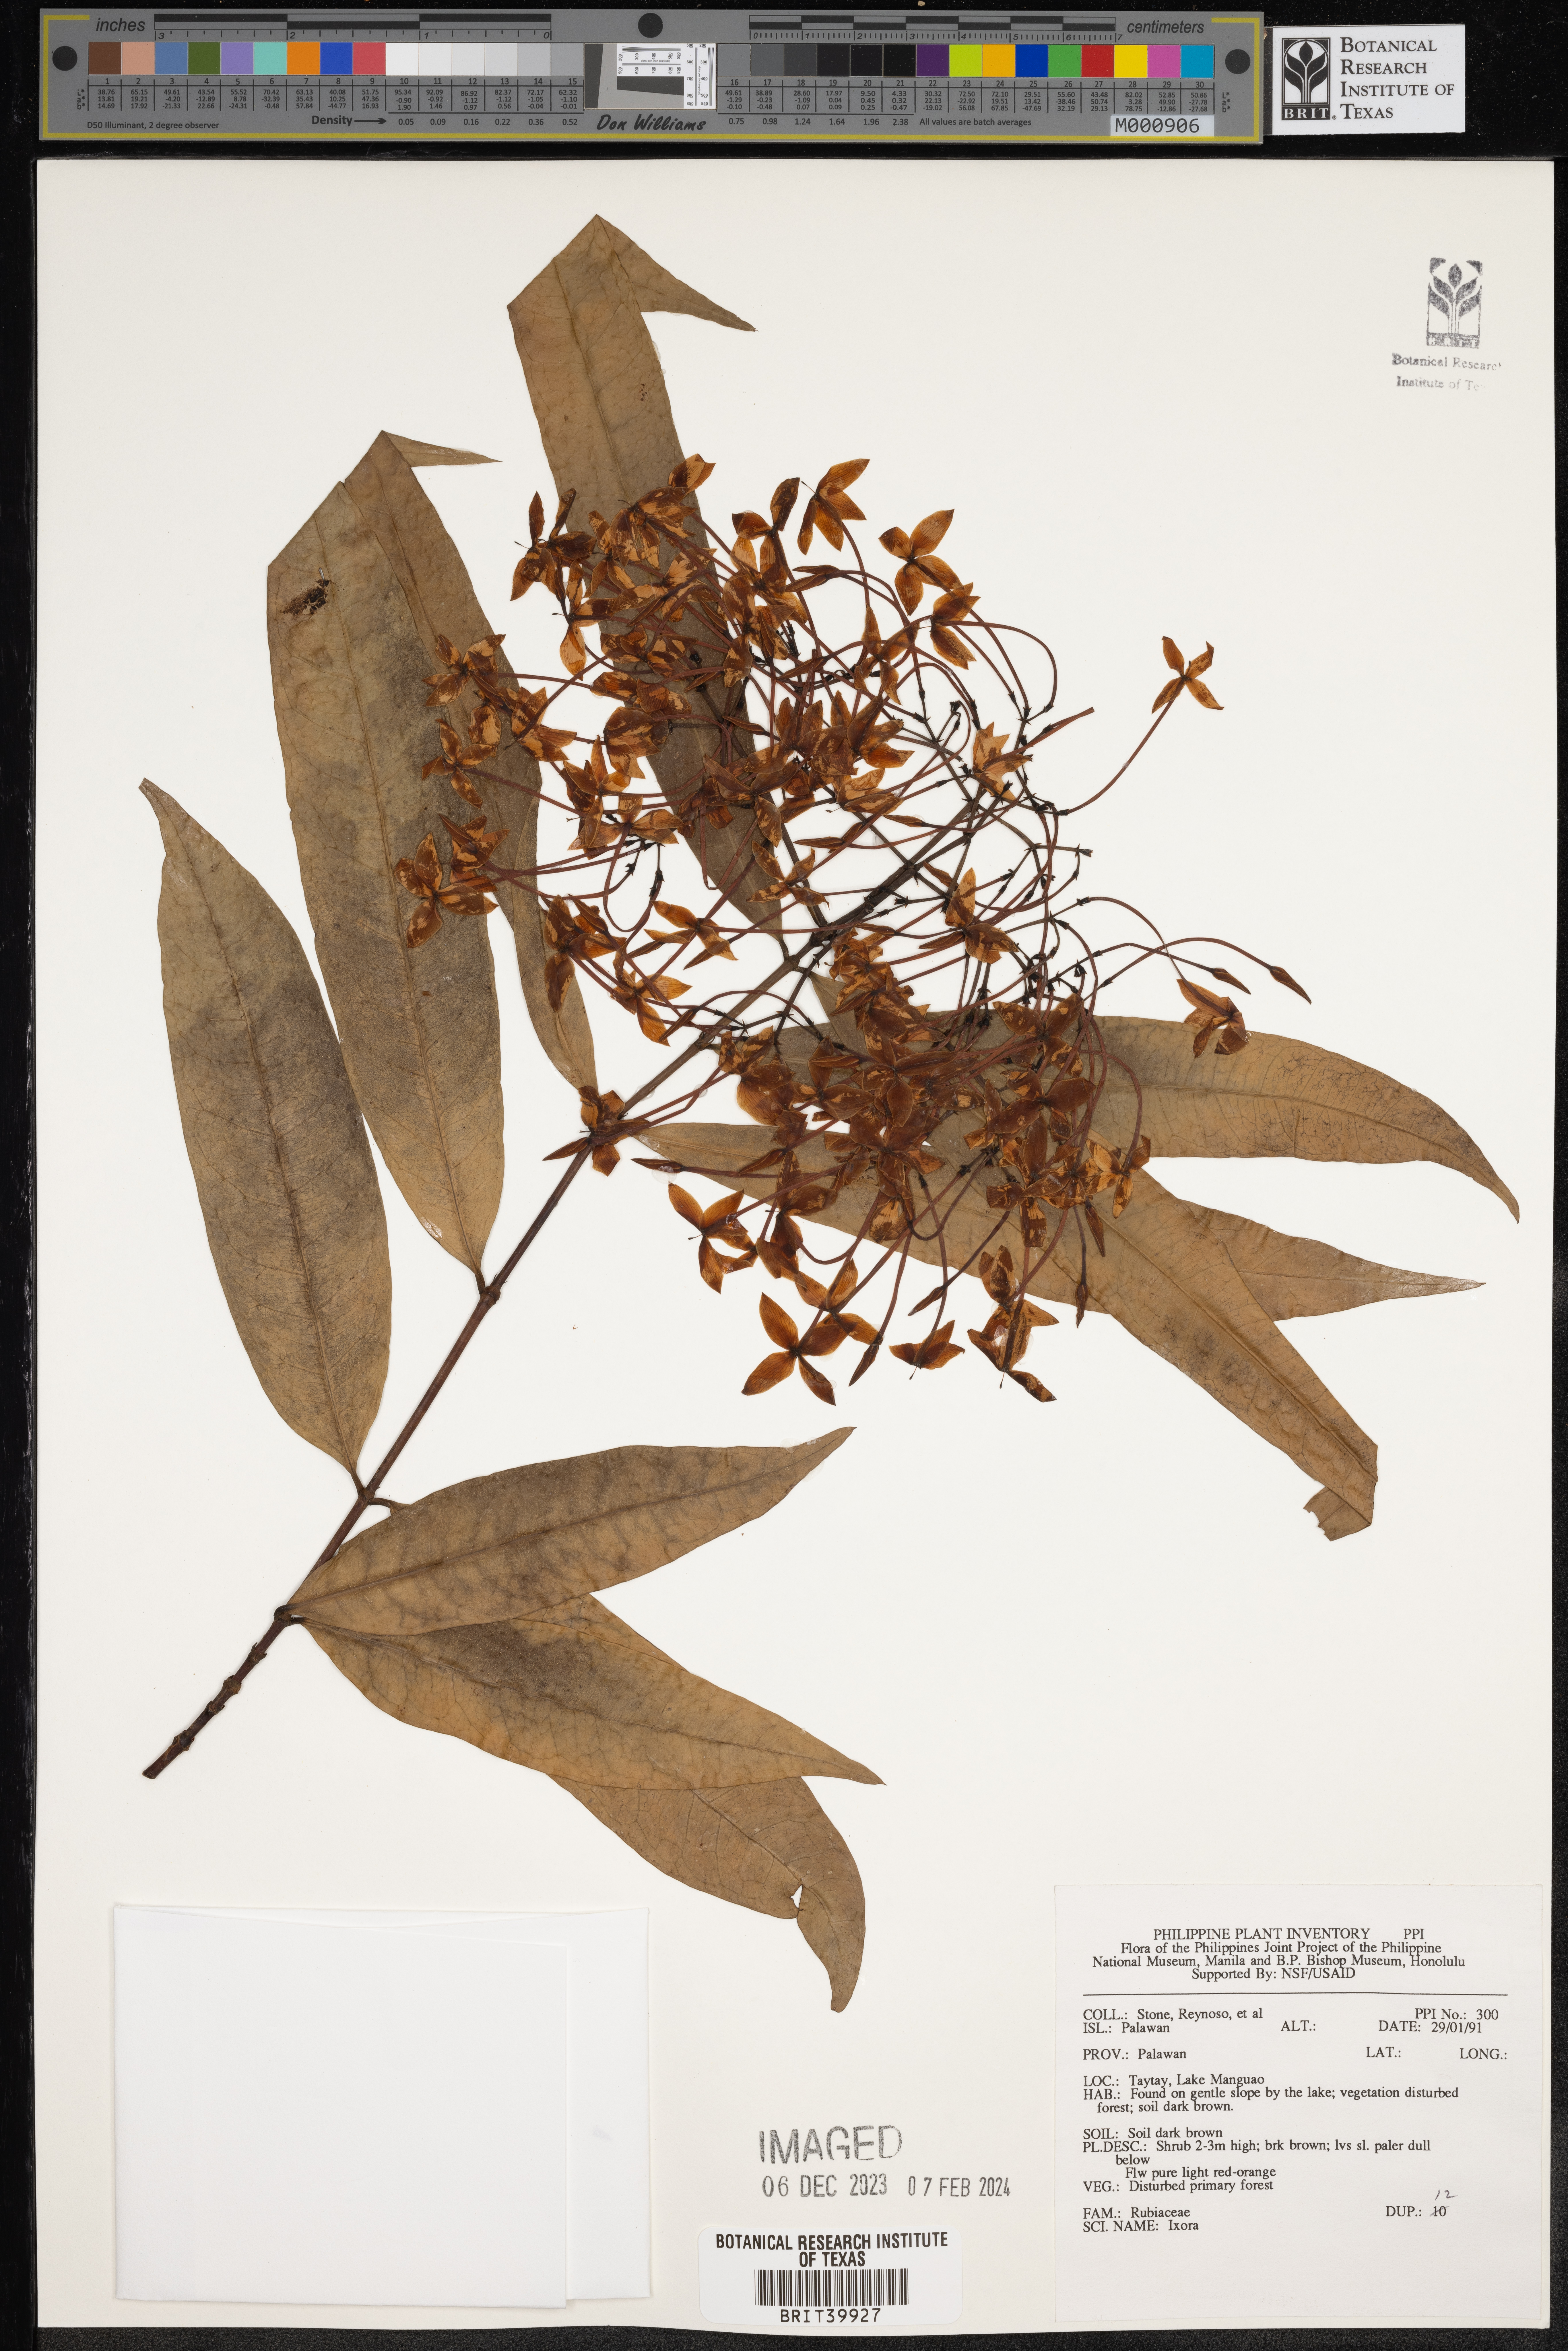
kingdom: Plantae
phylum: Tracheophyta
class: Magnoliopsida
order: Gentianales
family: Rubiaceae
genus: Ixora
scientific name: Ixora
